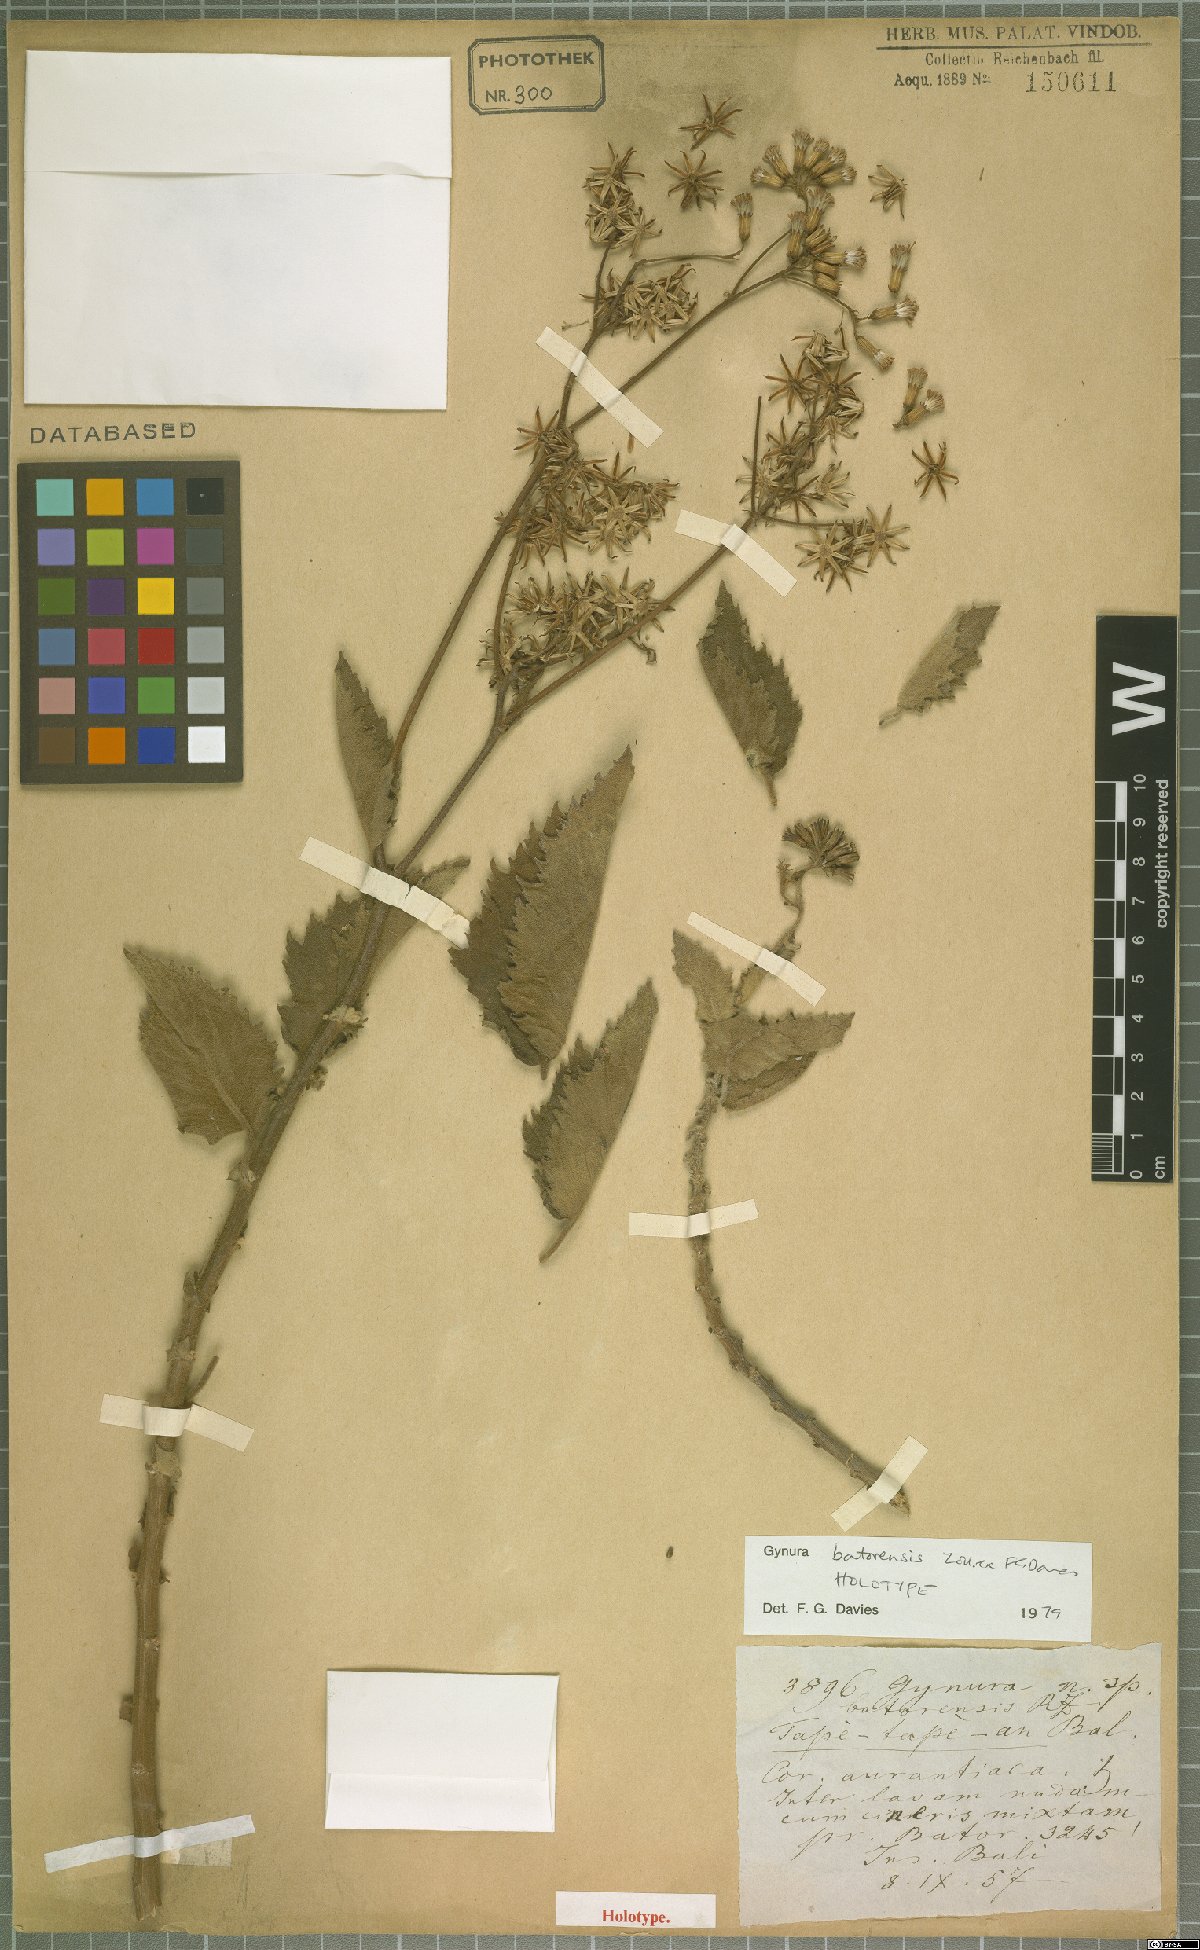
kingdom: Plantae
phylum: Tracheophyta
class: Magnoliopsida
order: Asterales
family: Asteraceae
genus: Gynura
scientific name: Gynura batorensis
